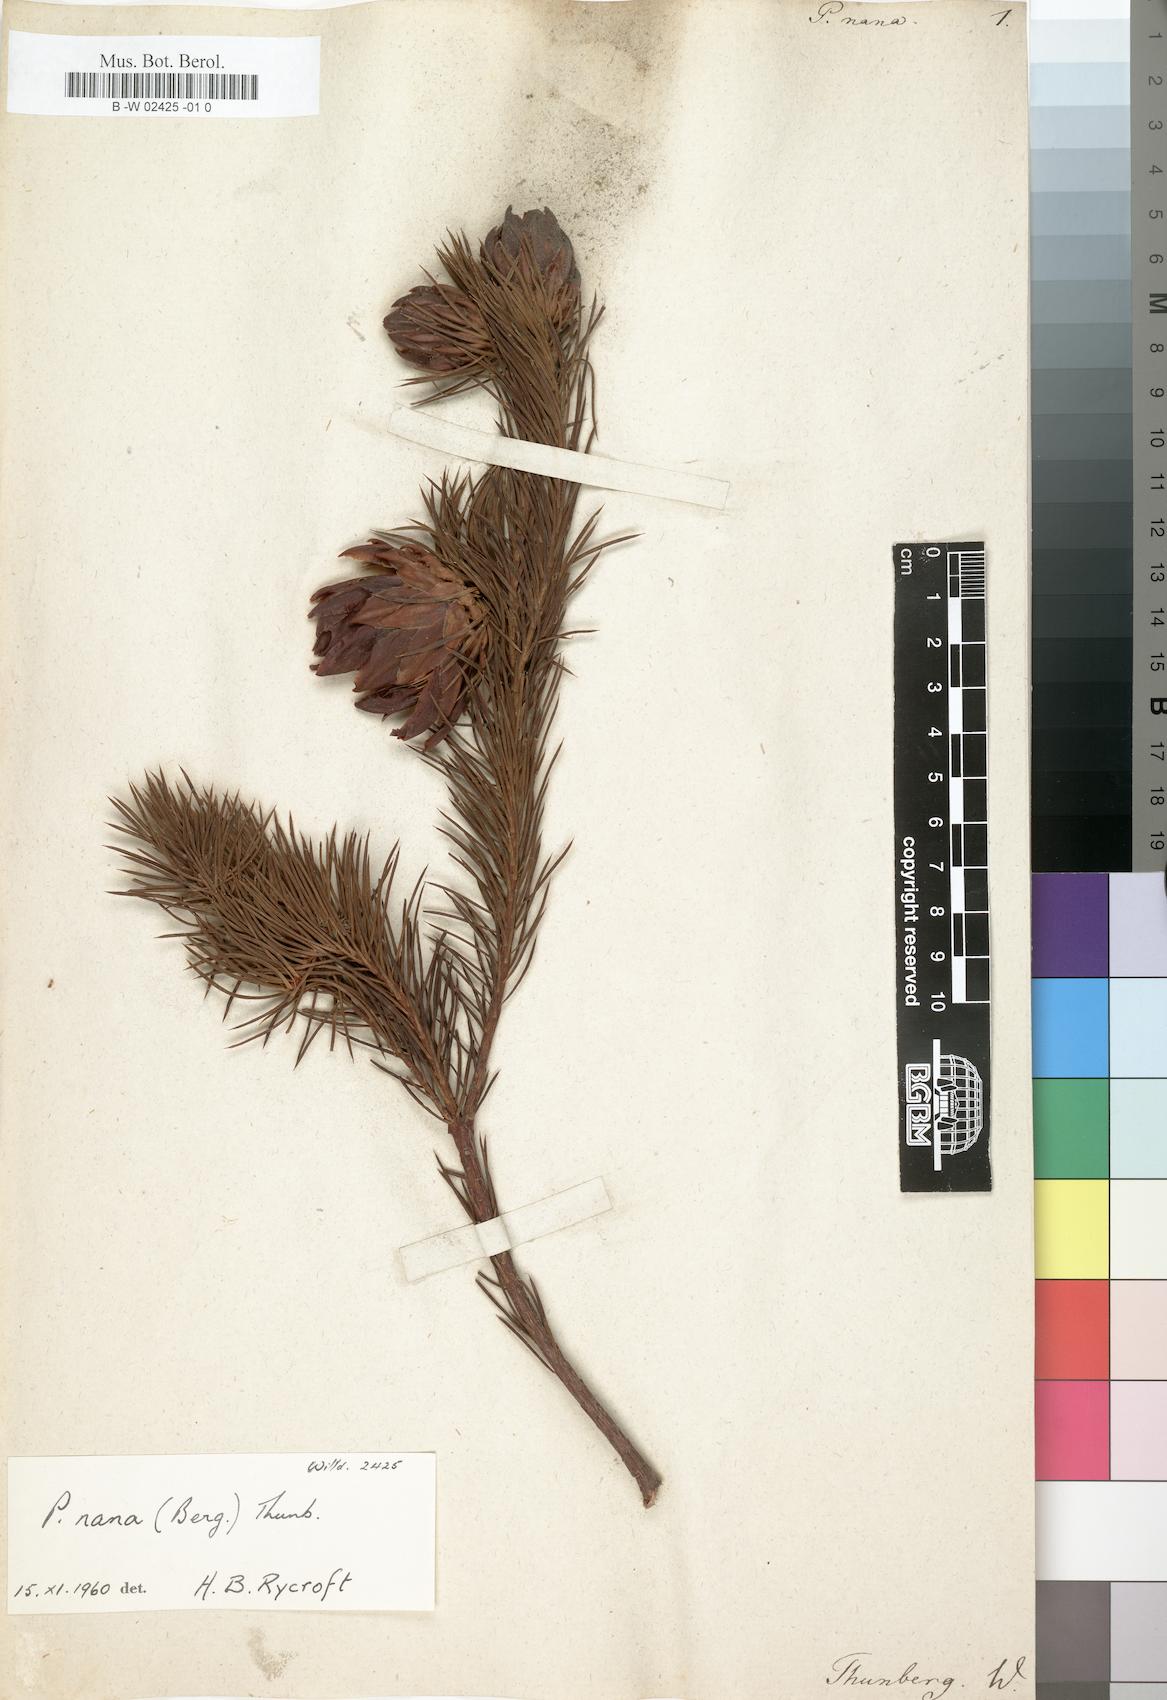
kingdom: Plantae
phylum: Tracheophyta
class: Magnoliopsida
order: Proteales
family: Proteaceae
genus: Protea
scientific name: Protea nana
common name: Mountain rose
